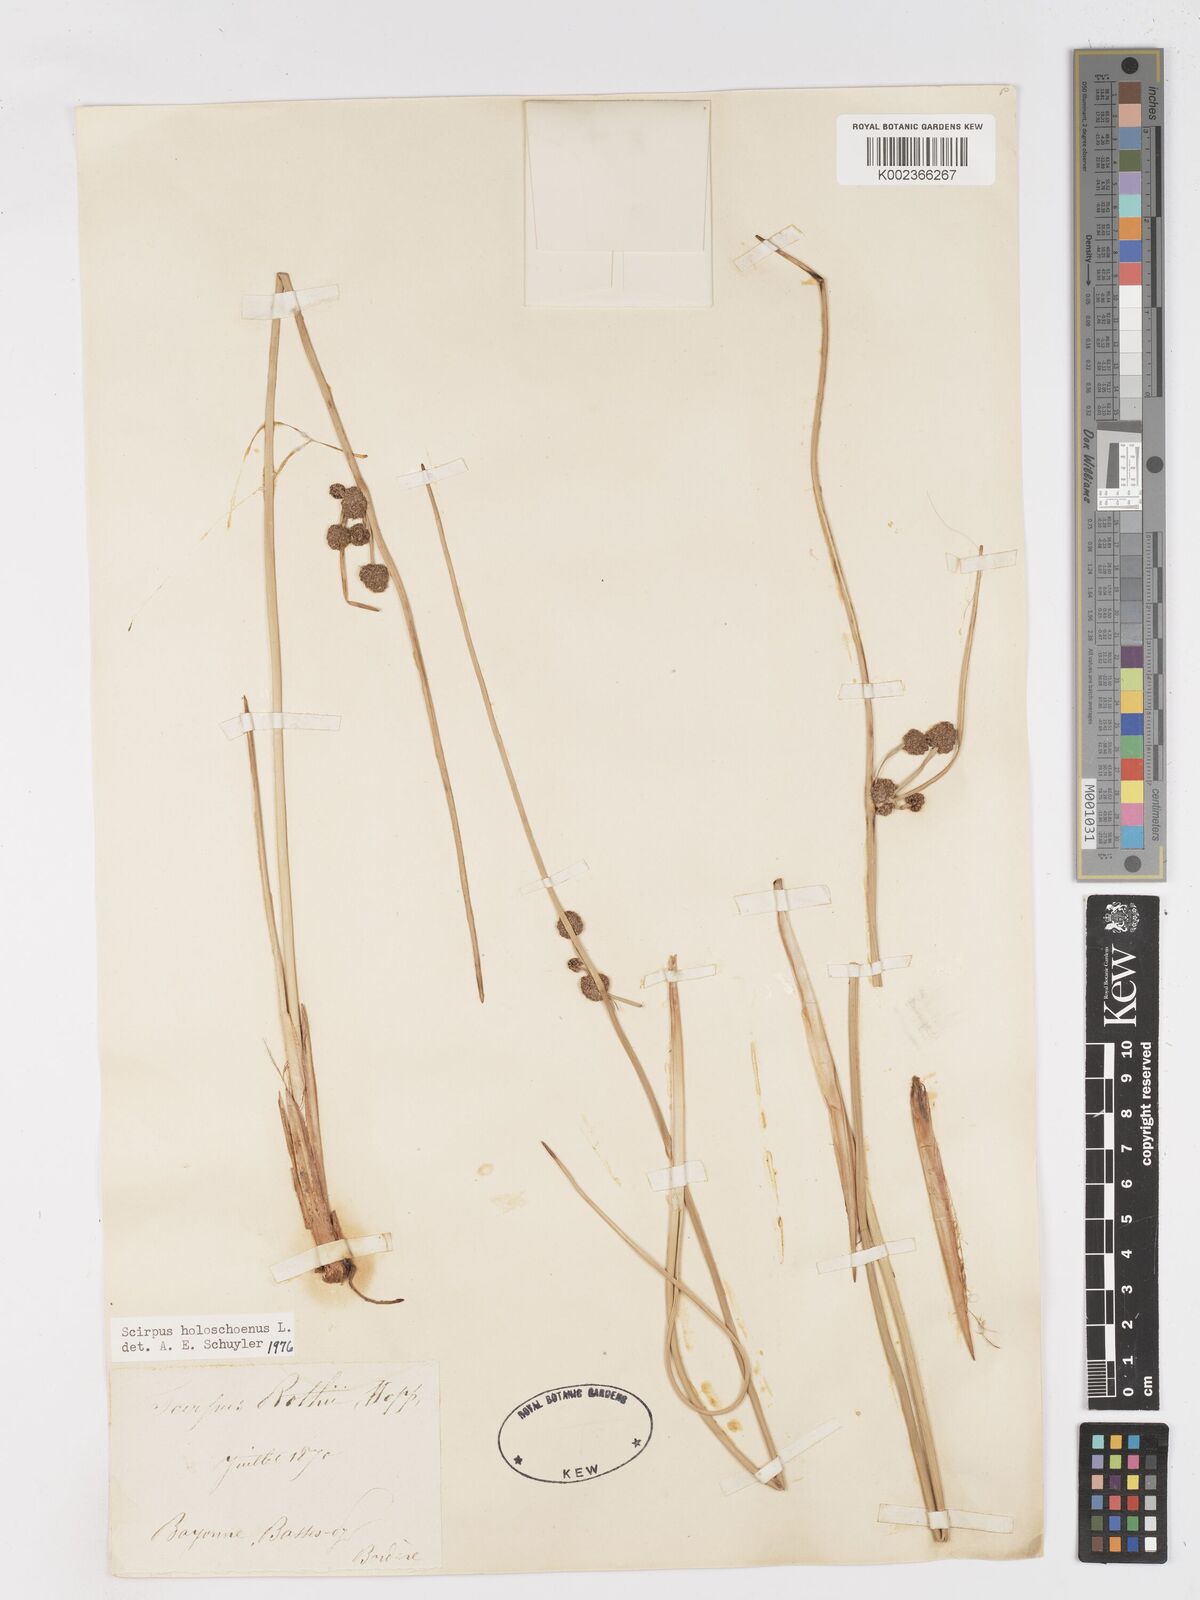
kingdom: Plantae
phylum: Tracheophyta
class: Liliopsida
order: Poales
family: Cyperaceae
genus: Scirpoides
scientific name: Scirpoides holoschoenus
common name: Round-headed club-rush
